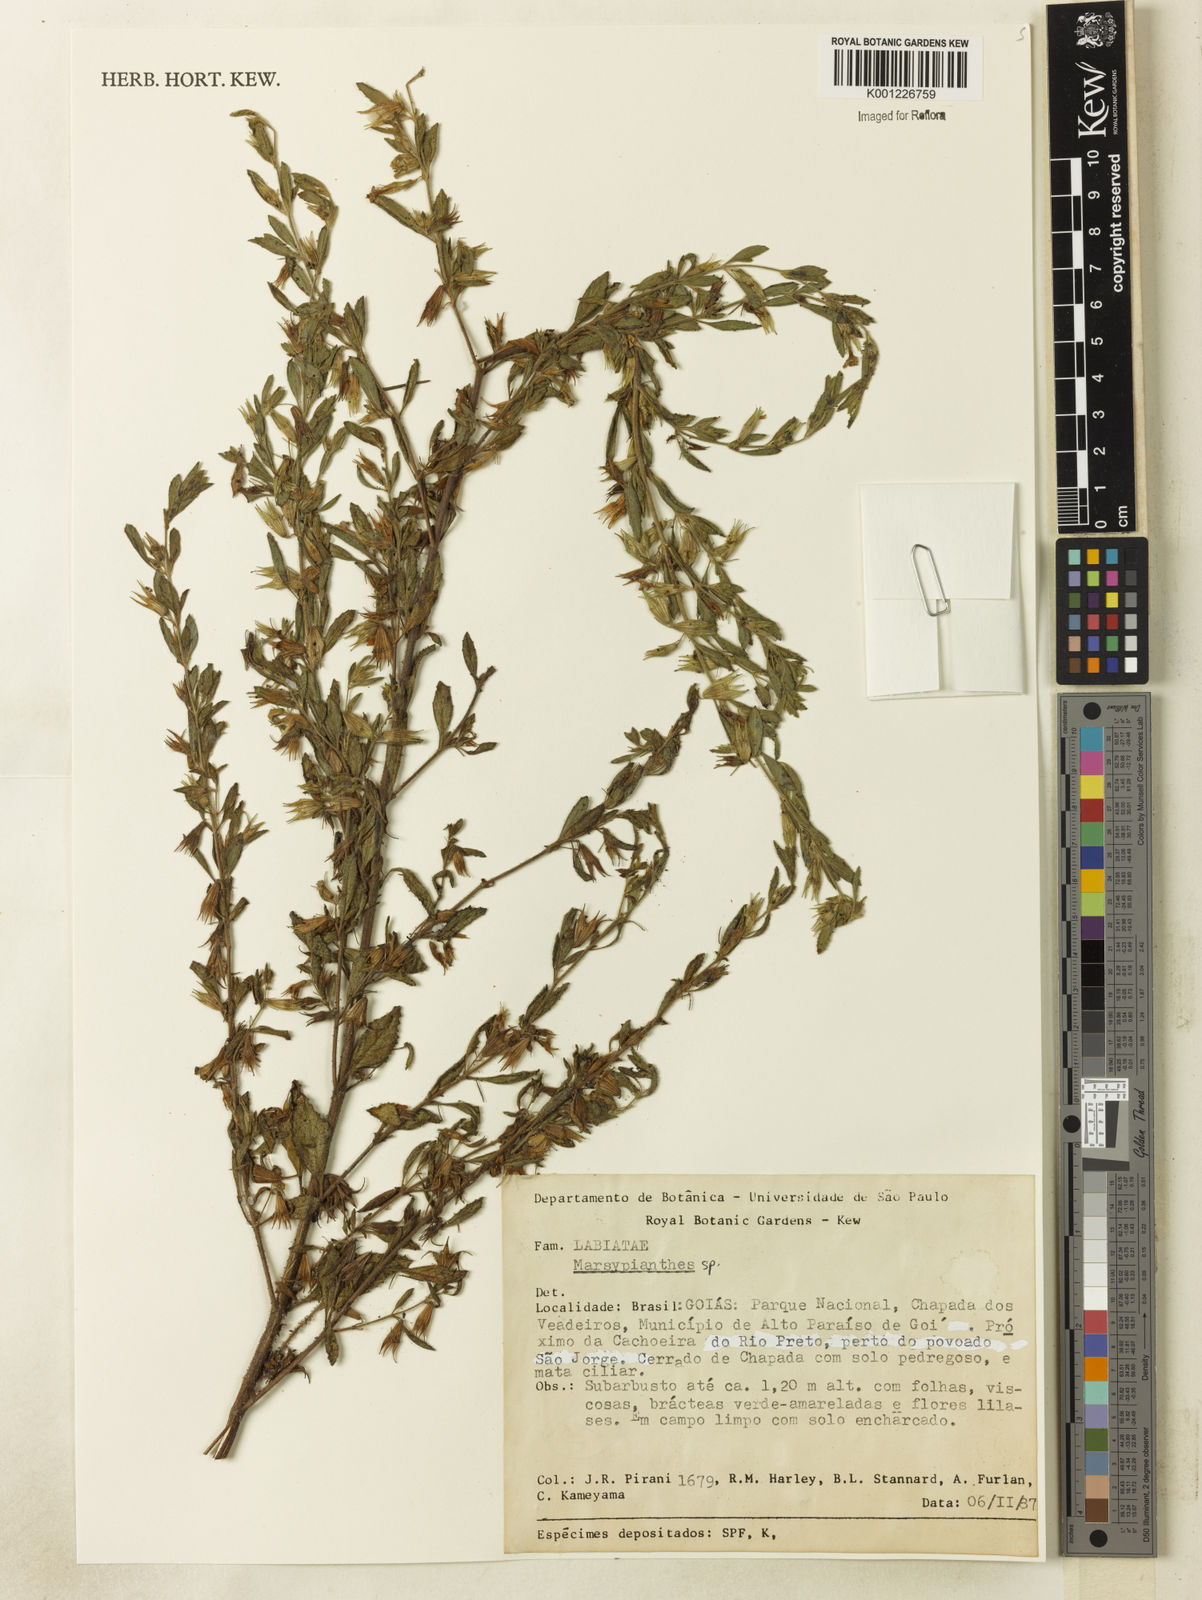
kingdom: Plantae
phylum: Tracheophyta
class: Magnoliopsida
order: Lamiales
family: Lamiaceae
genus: Marsypianthes
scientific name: Marsypianthes
